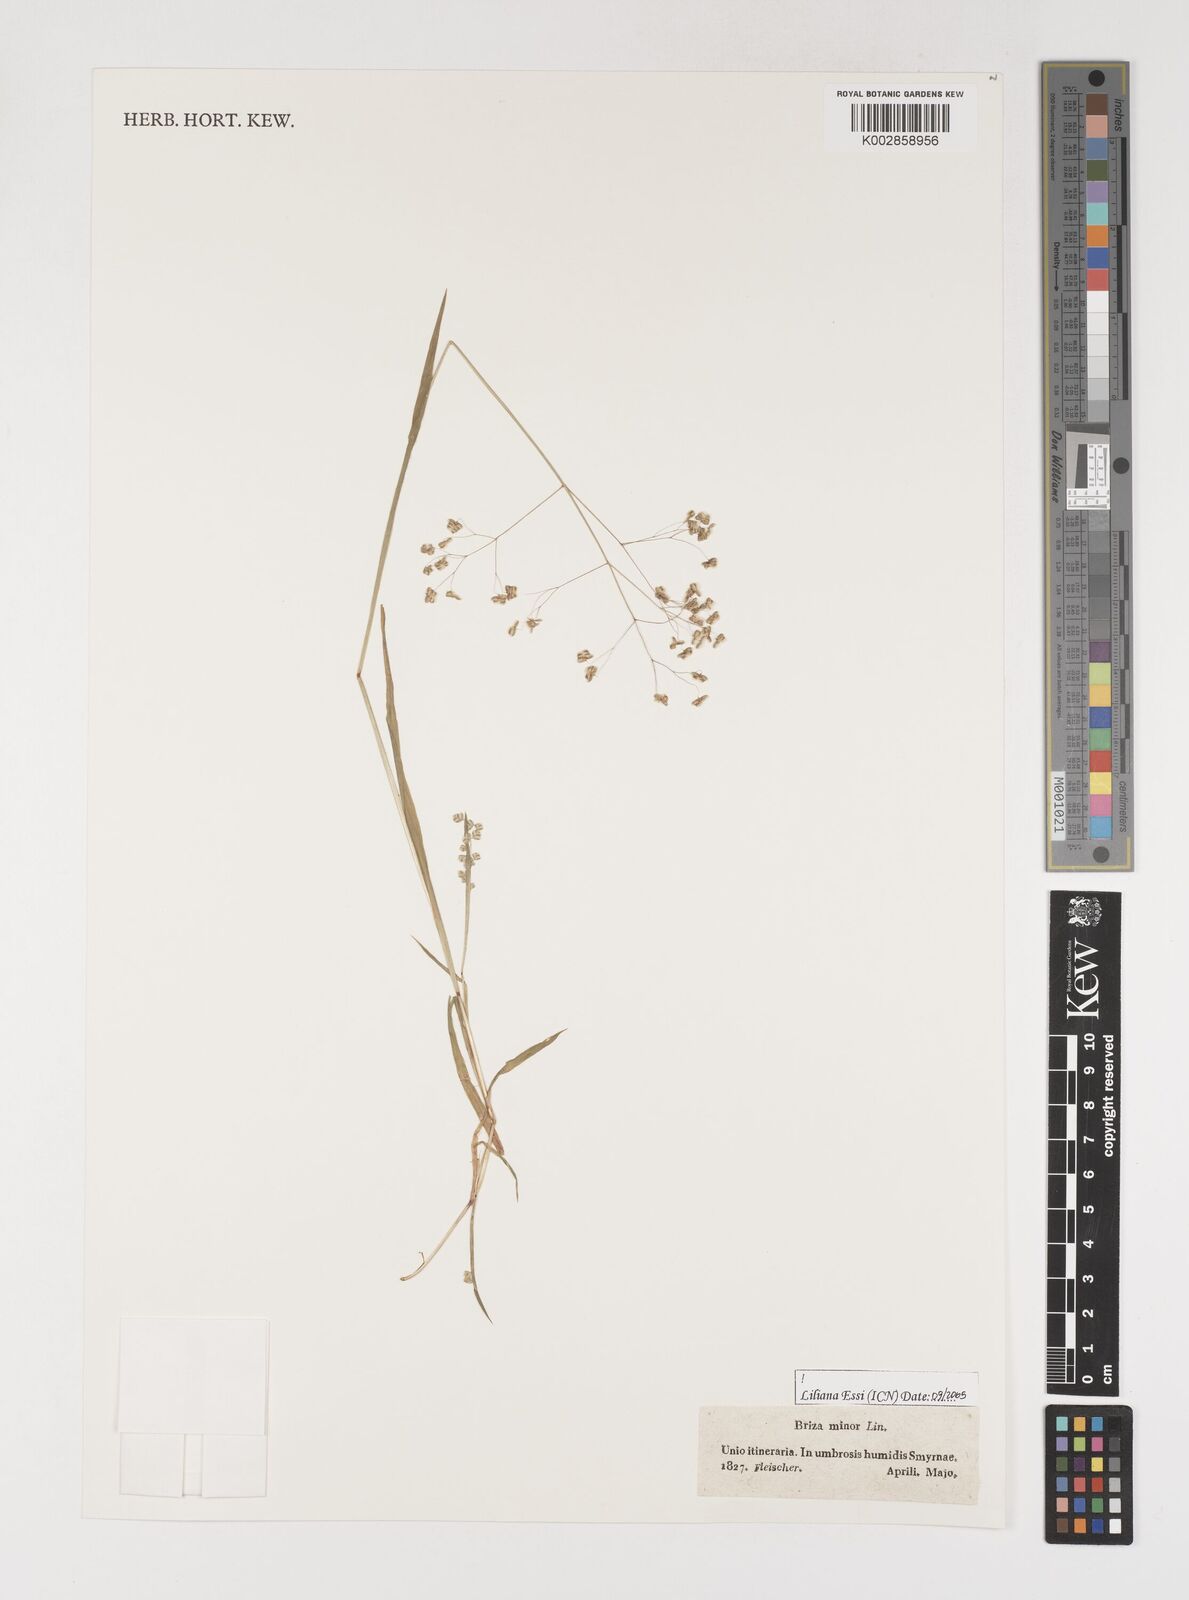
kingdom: Plantae
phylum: Tracheophyta
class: Liliopsida
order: Poales
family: Poaceae
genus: Briza
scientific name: Briza minor
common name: Lesser quaking-grass
